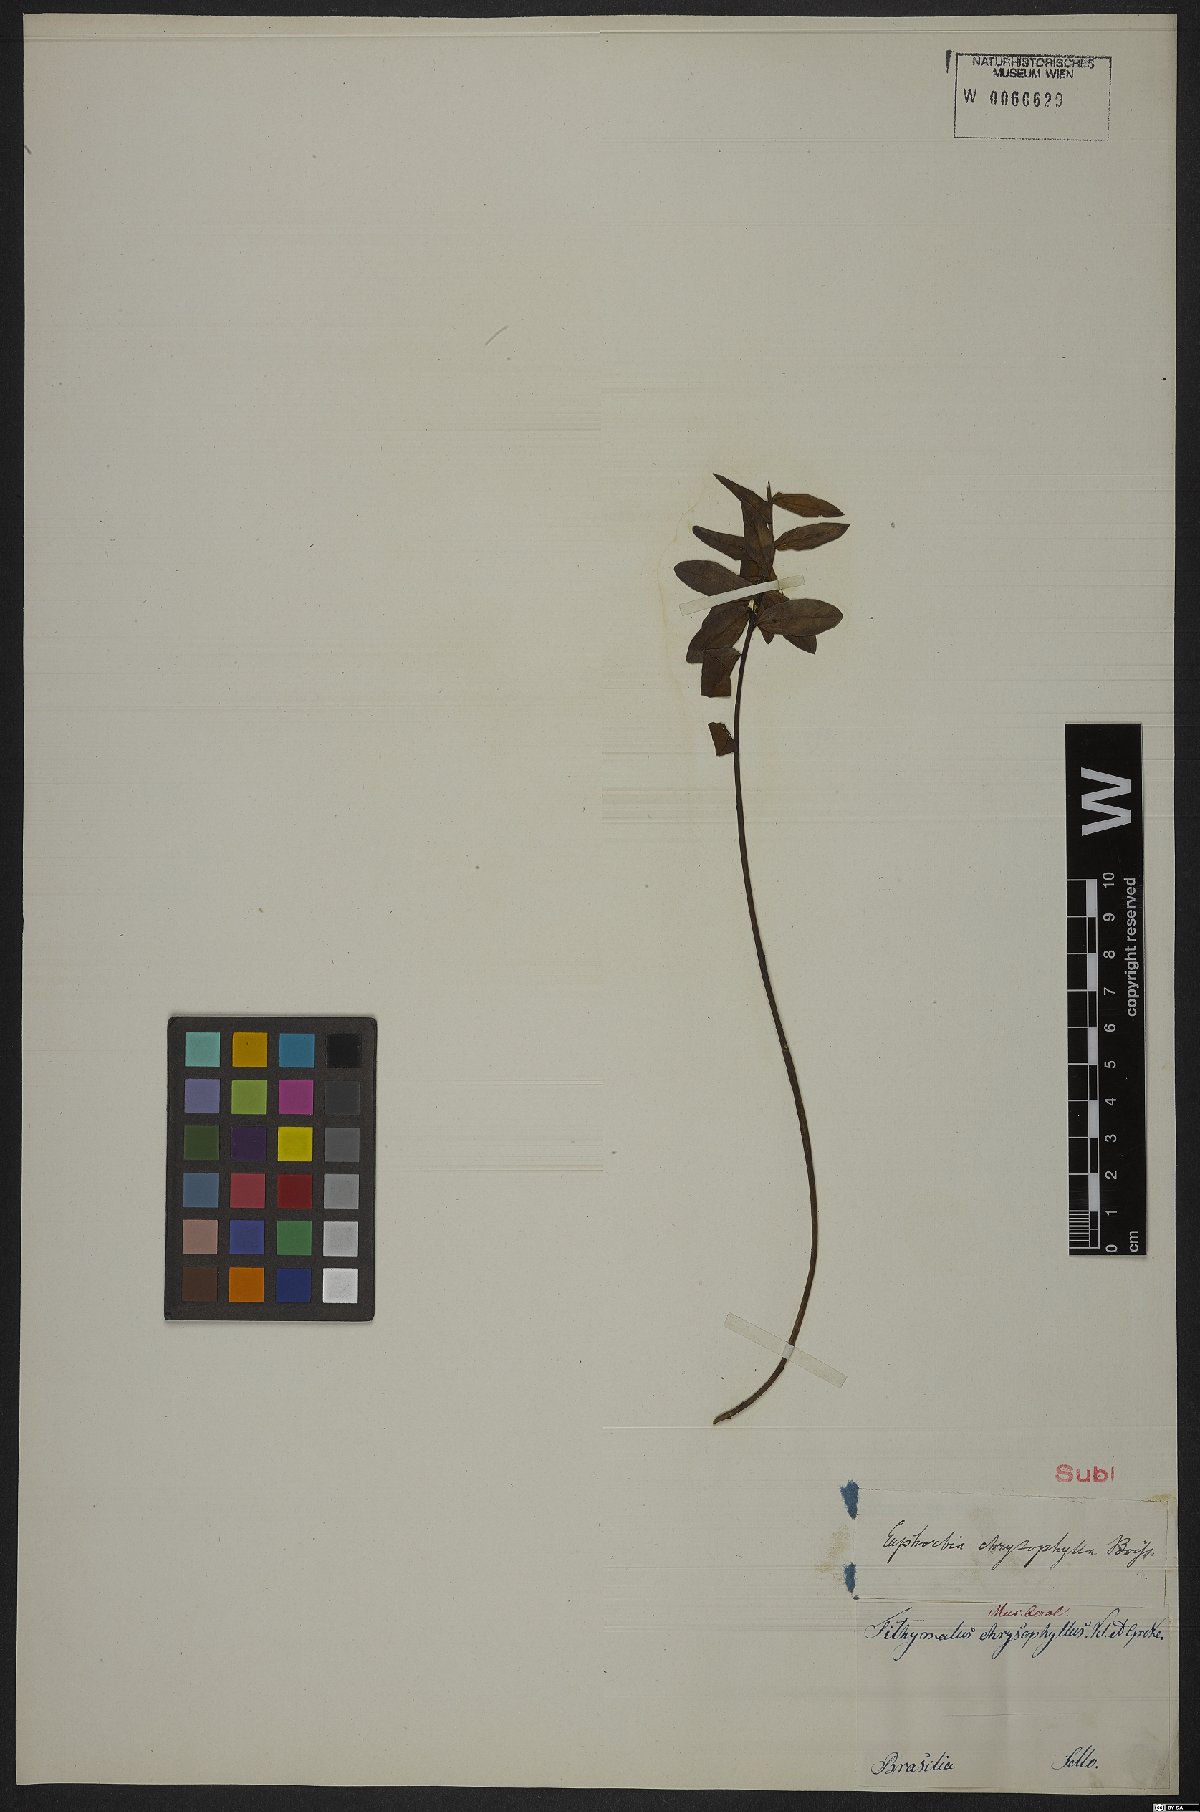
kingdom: Plantae
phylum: Tracheophyta
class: Magnoliopsida
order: Malpighiales
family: Euphorbiaceae
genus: Euphorbia
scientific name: Euphorbia chrysophylla
